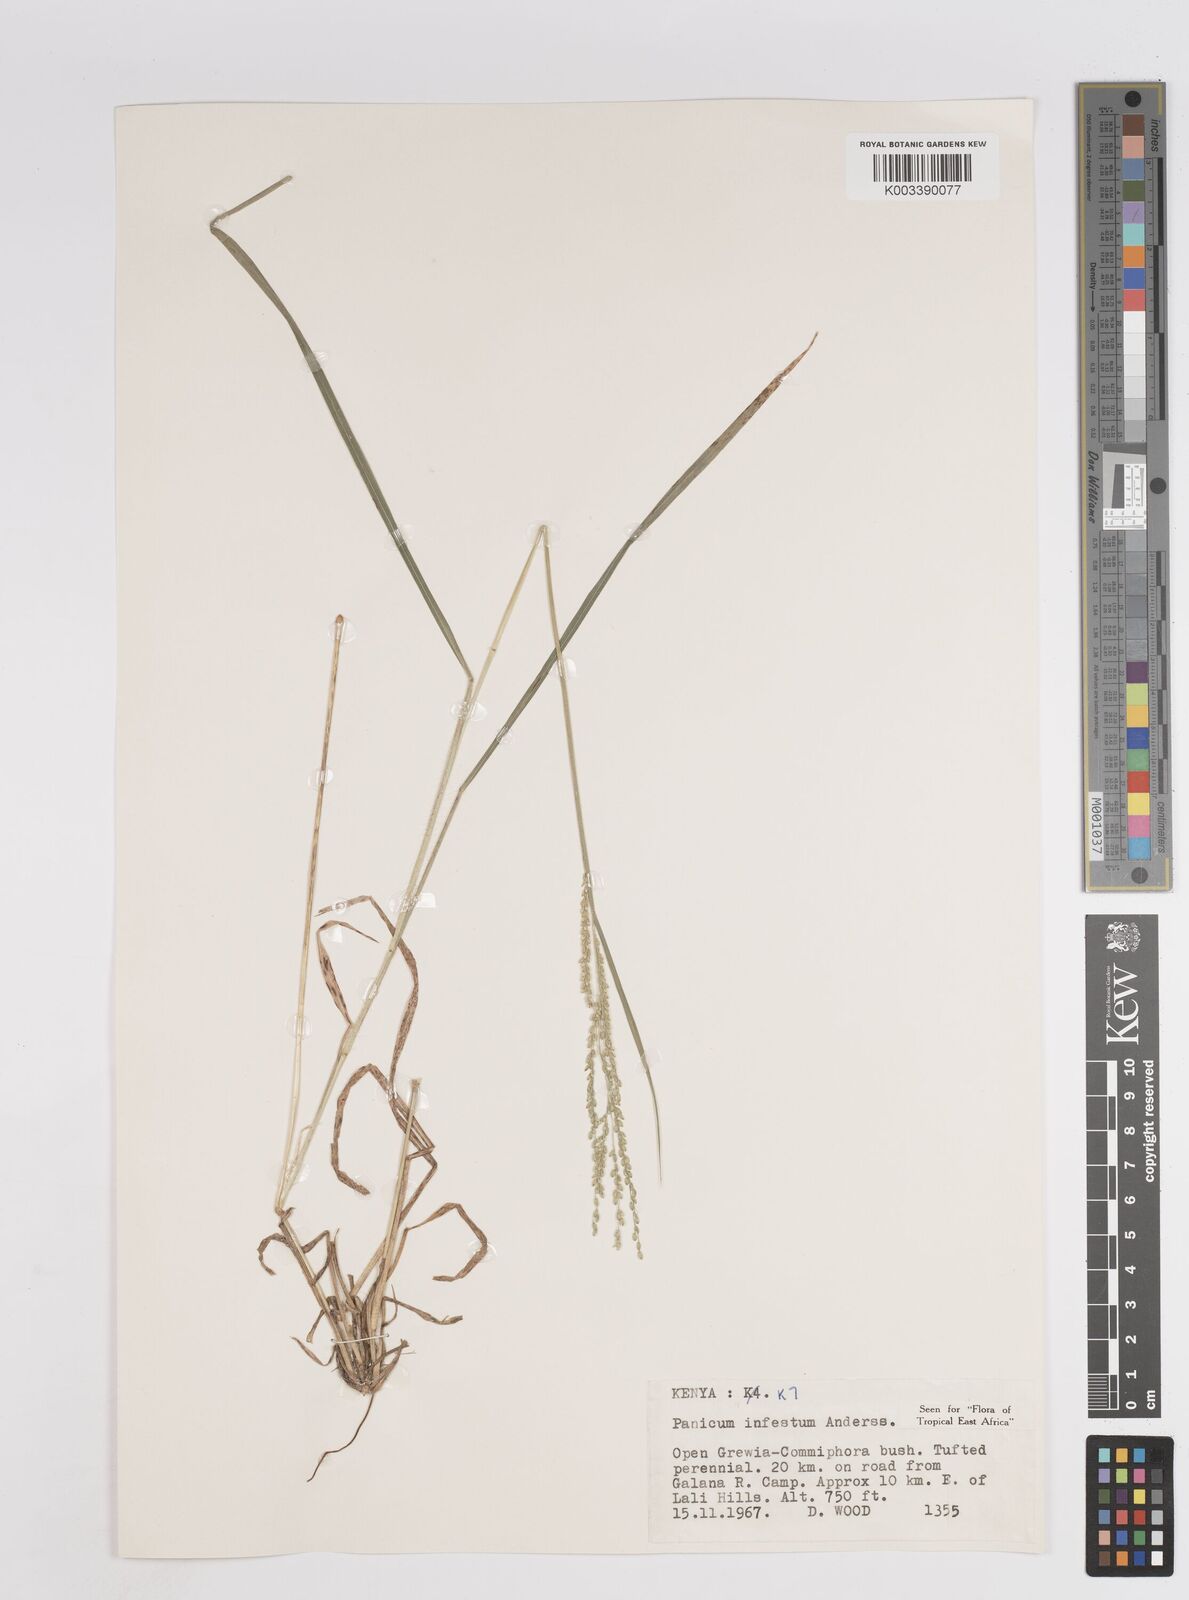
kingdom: Plantae
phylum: Tracheophyta
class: Liliopsida
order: Poales
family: Poaceae
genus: Megathyrsus
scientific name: Megathyrsus infestus
